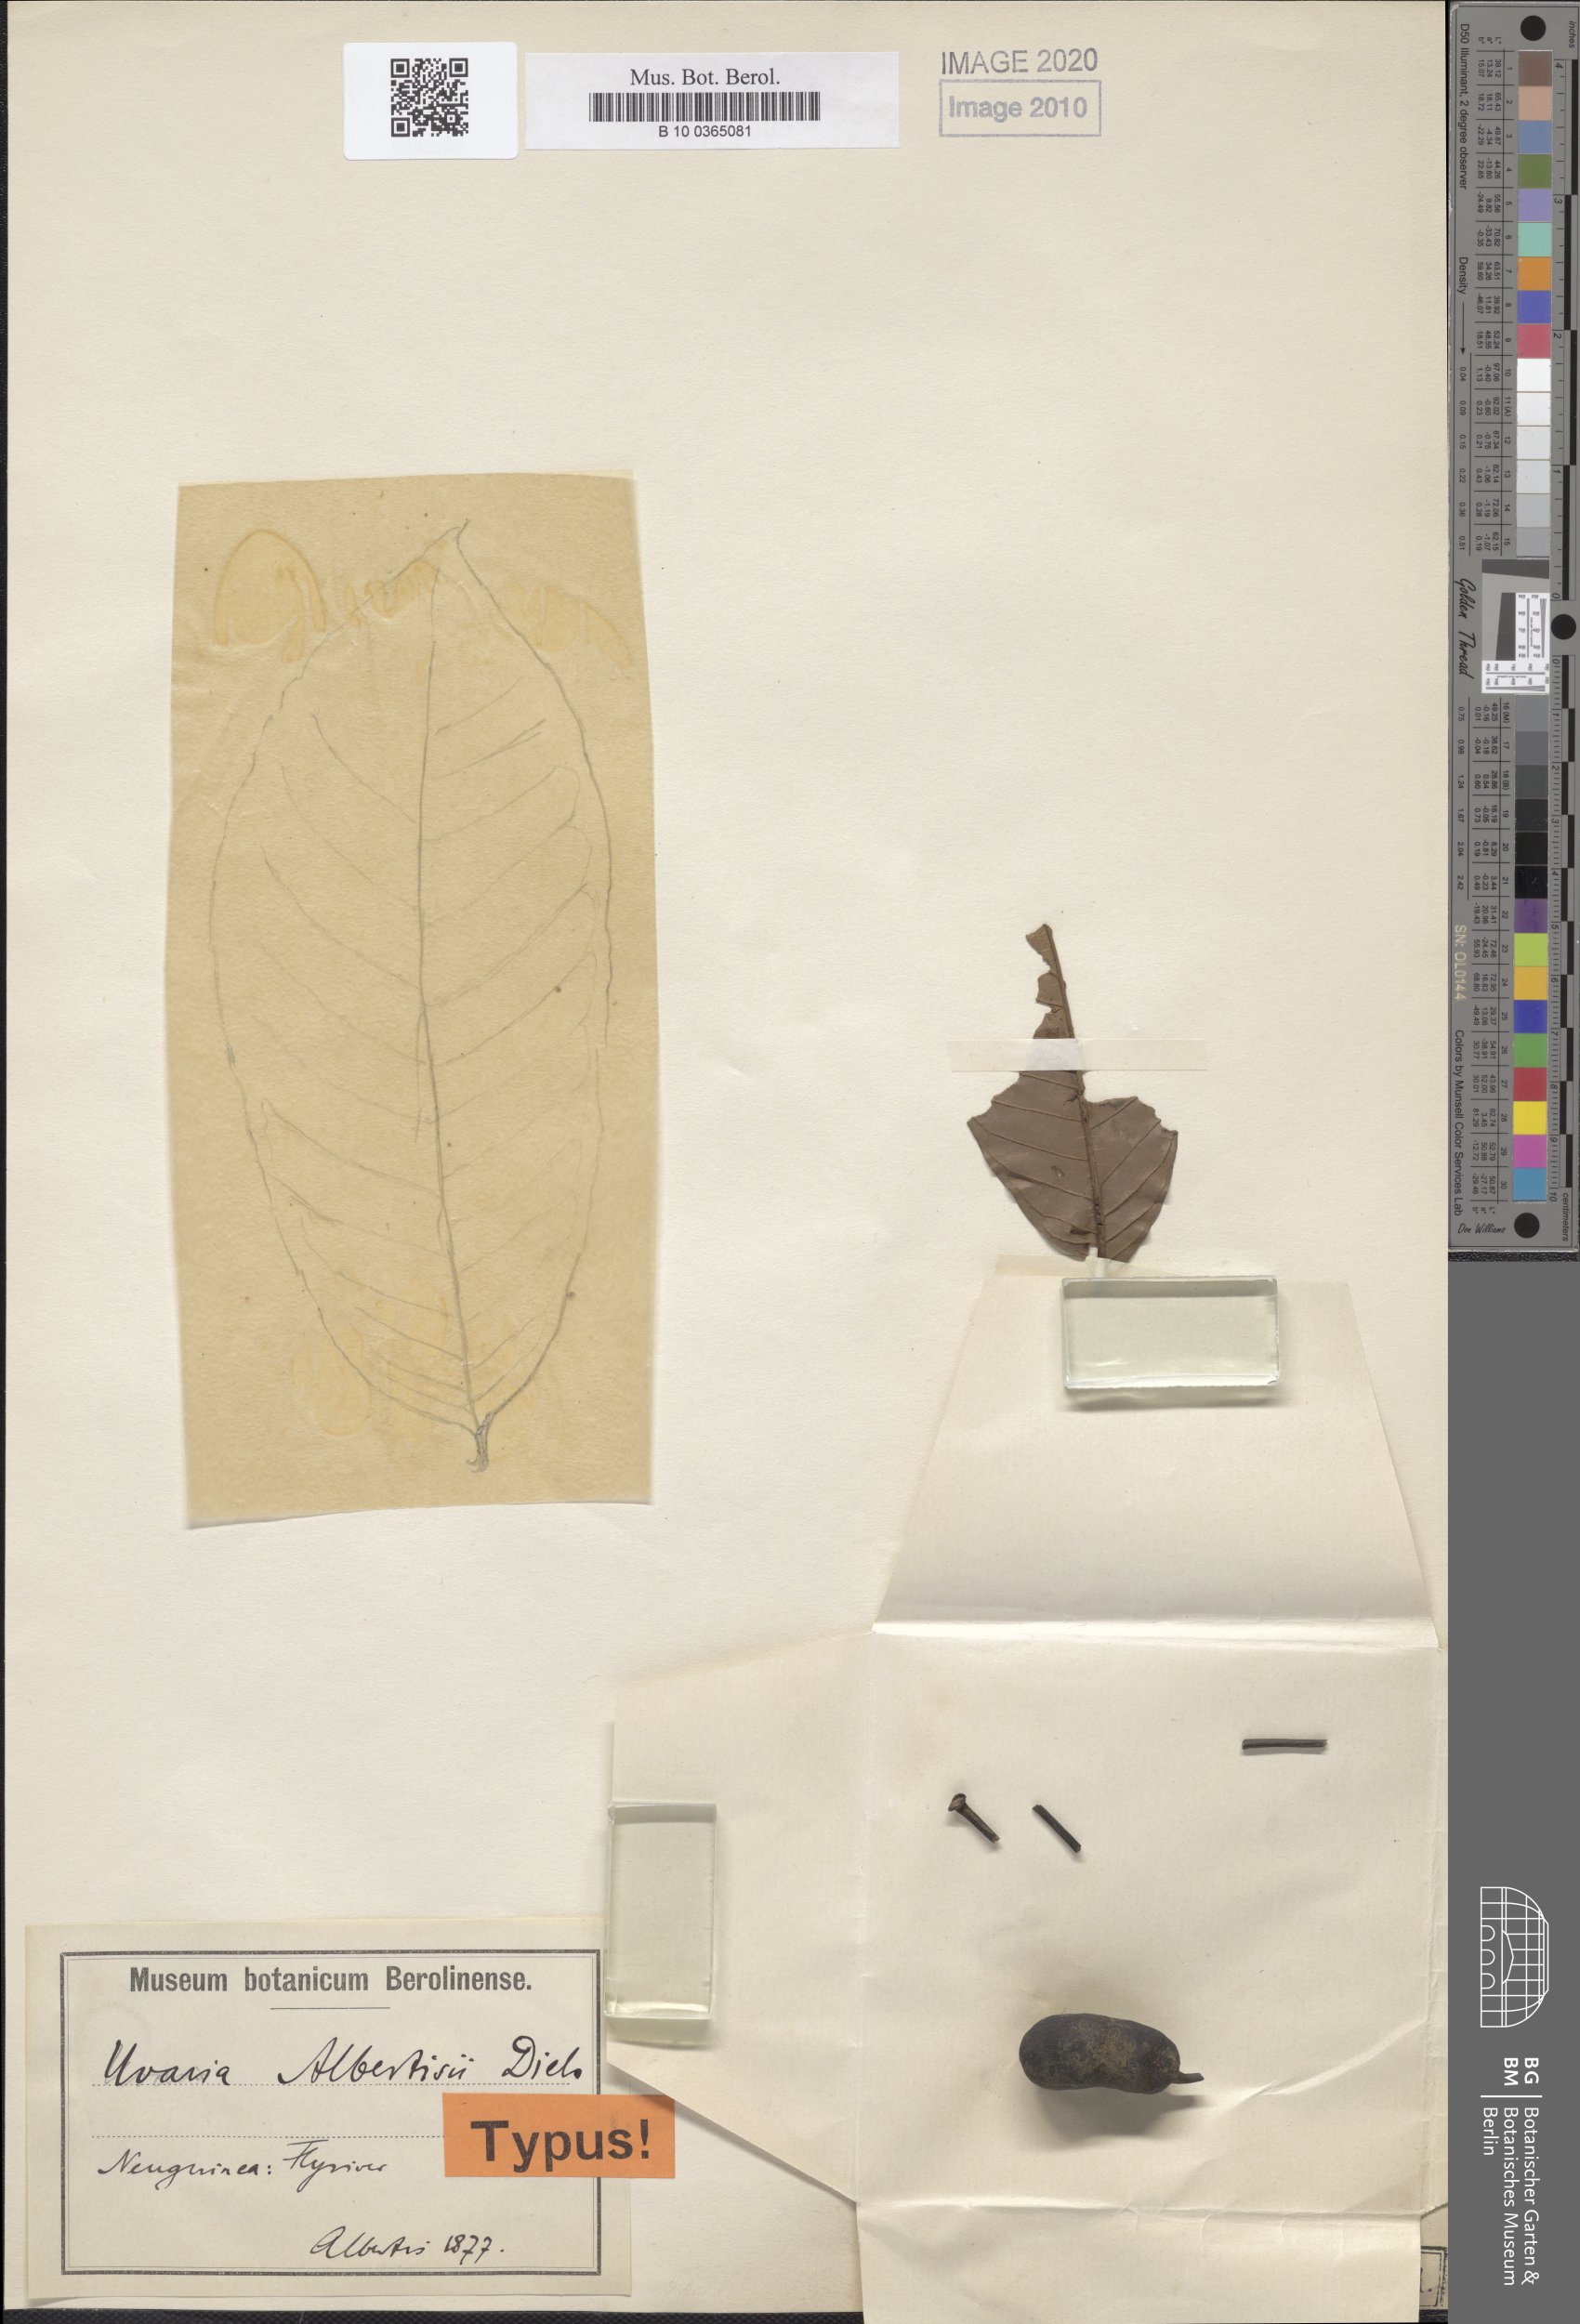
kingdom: Plantae
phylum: Tracheophyta
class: Magnoliopsida
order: Magnoliales
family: Annonaceae
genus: Uvaria
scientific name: Uvaria albertisii
